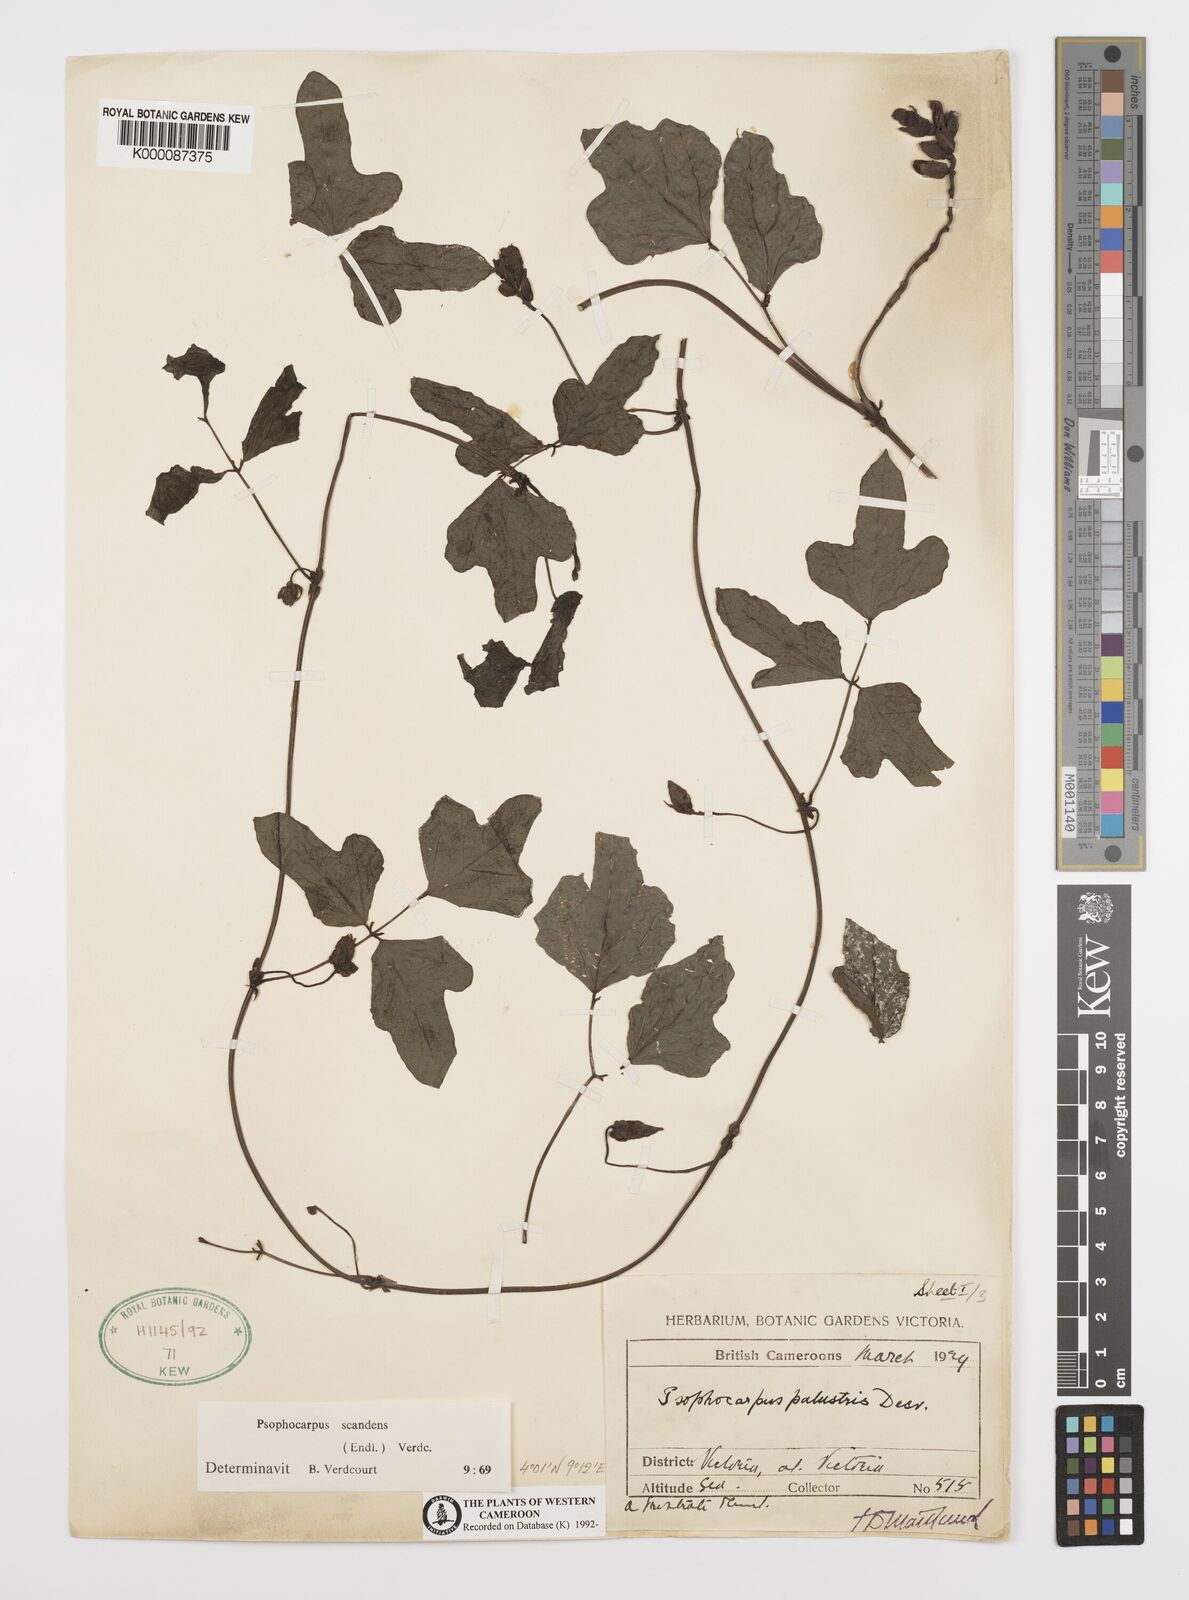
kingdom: Plantae
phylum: Tracheophyta
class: Magnoliopsida
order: Fabales
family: Fabaceae
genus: Psophocarpus
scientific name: Psophocarpus scandens
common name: Tropical african winged-bean
